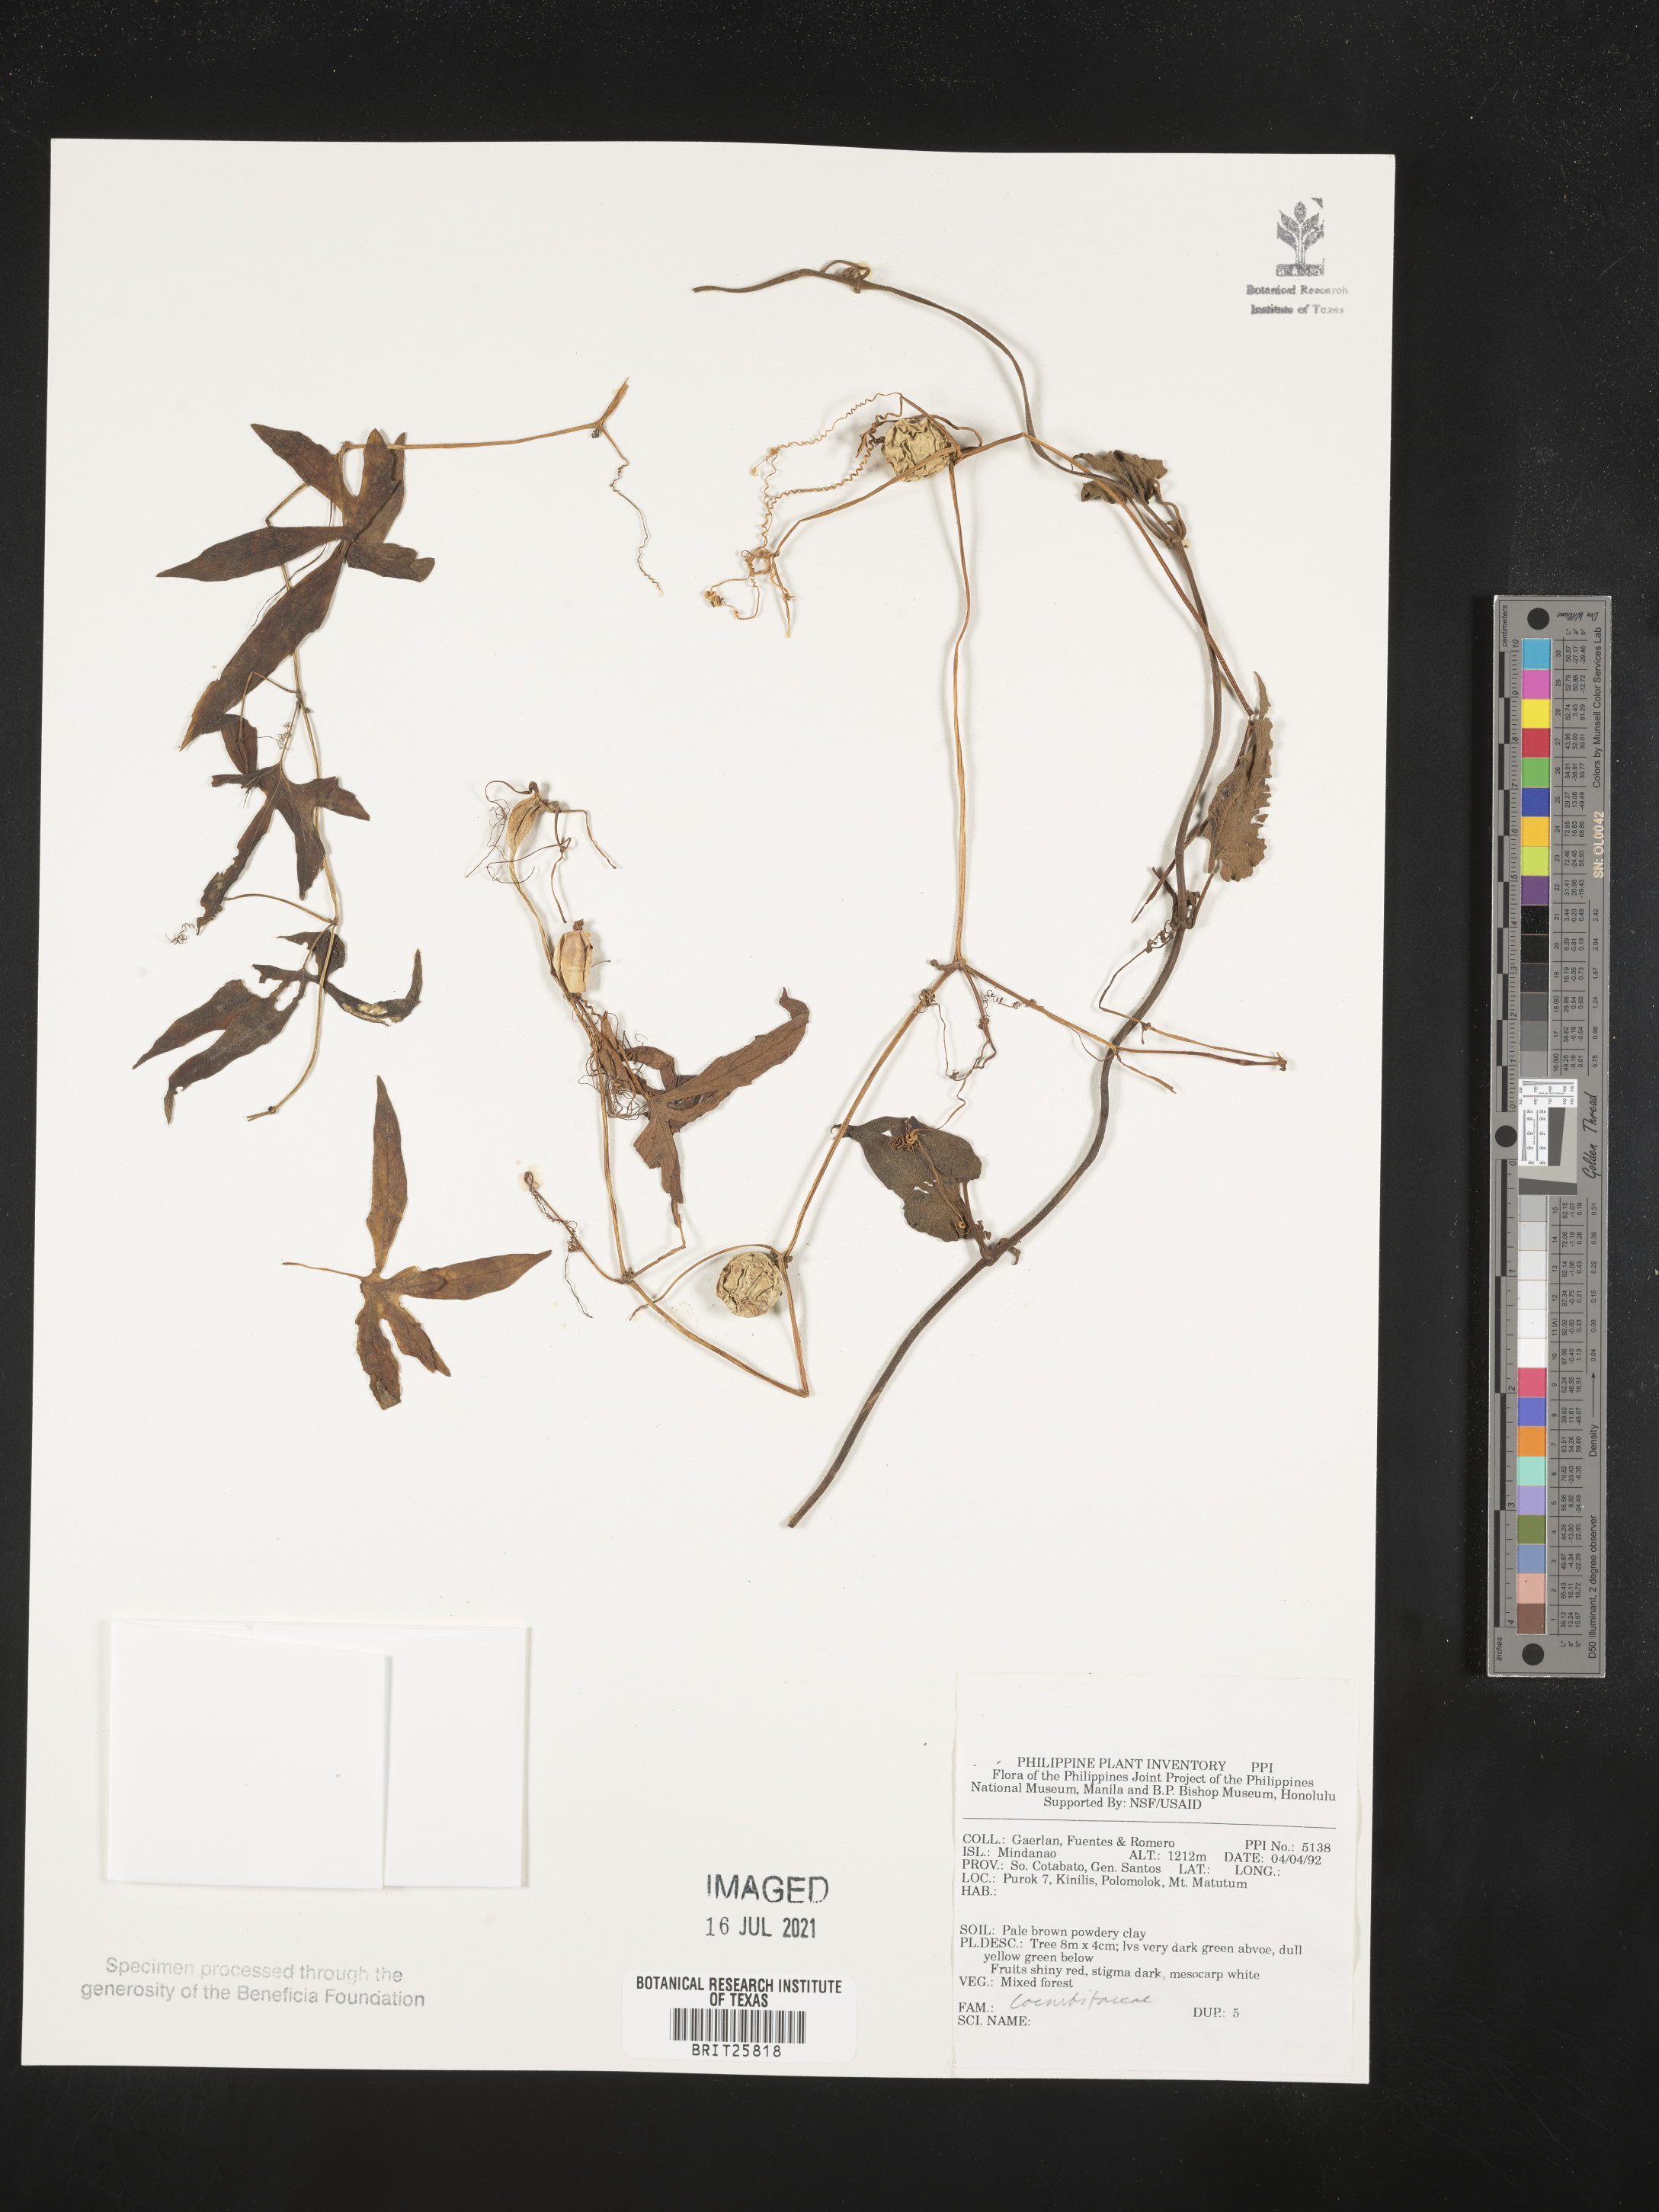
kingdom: Plantae
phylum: Tracheophyta
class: Magnoliopsida
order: Cucurbitales
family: Cucurbitaceae
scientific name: Cucurbitaceae
